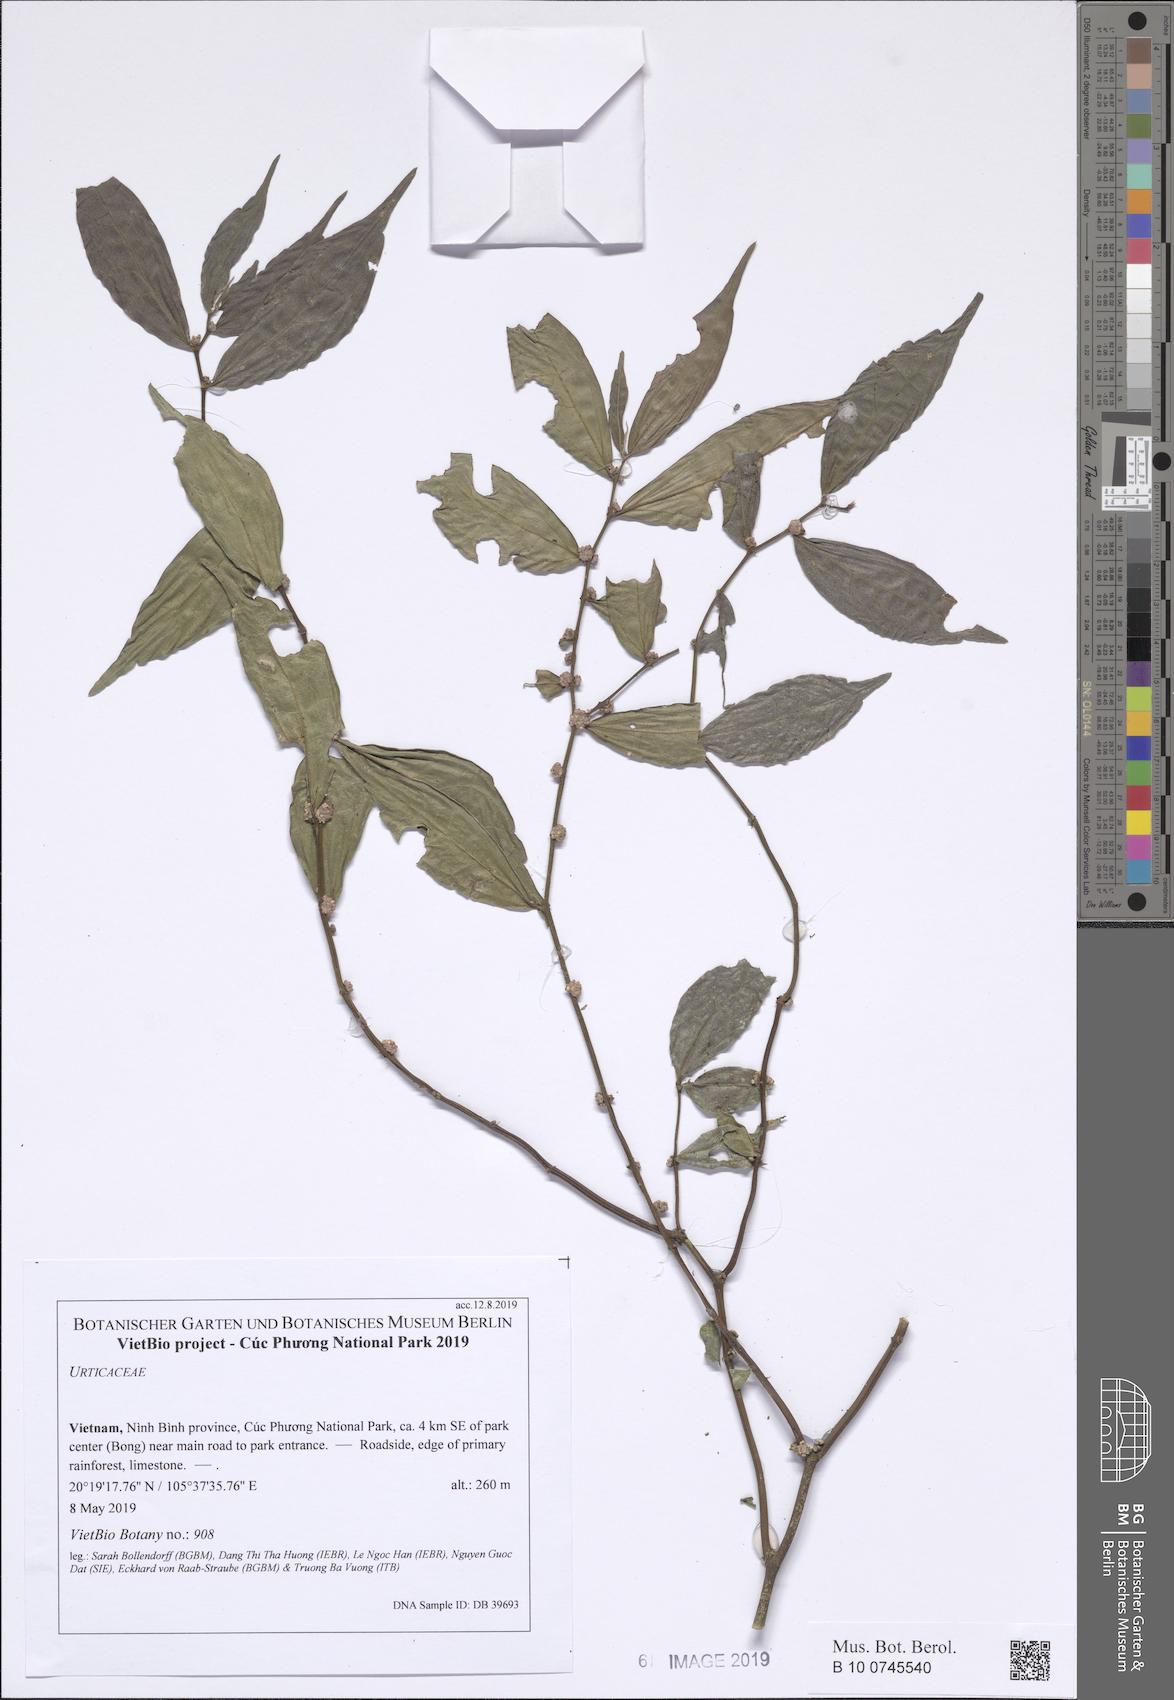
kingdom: Plantae
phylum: Tracheophyta
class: Magnoliopsida
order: Rosales
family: Urticaceae
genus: Elatostema
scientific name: Elatostema lineolatum
